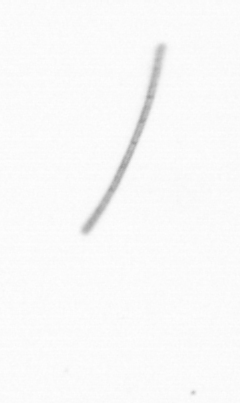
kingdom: Chromista
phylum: Ochrophyta
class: Bacillariophyceae
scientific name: Bacillariophyceae
